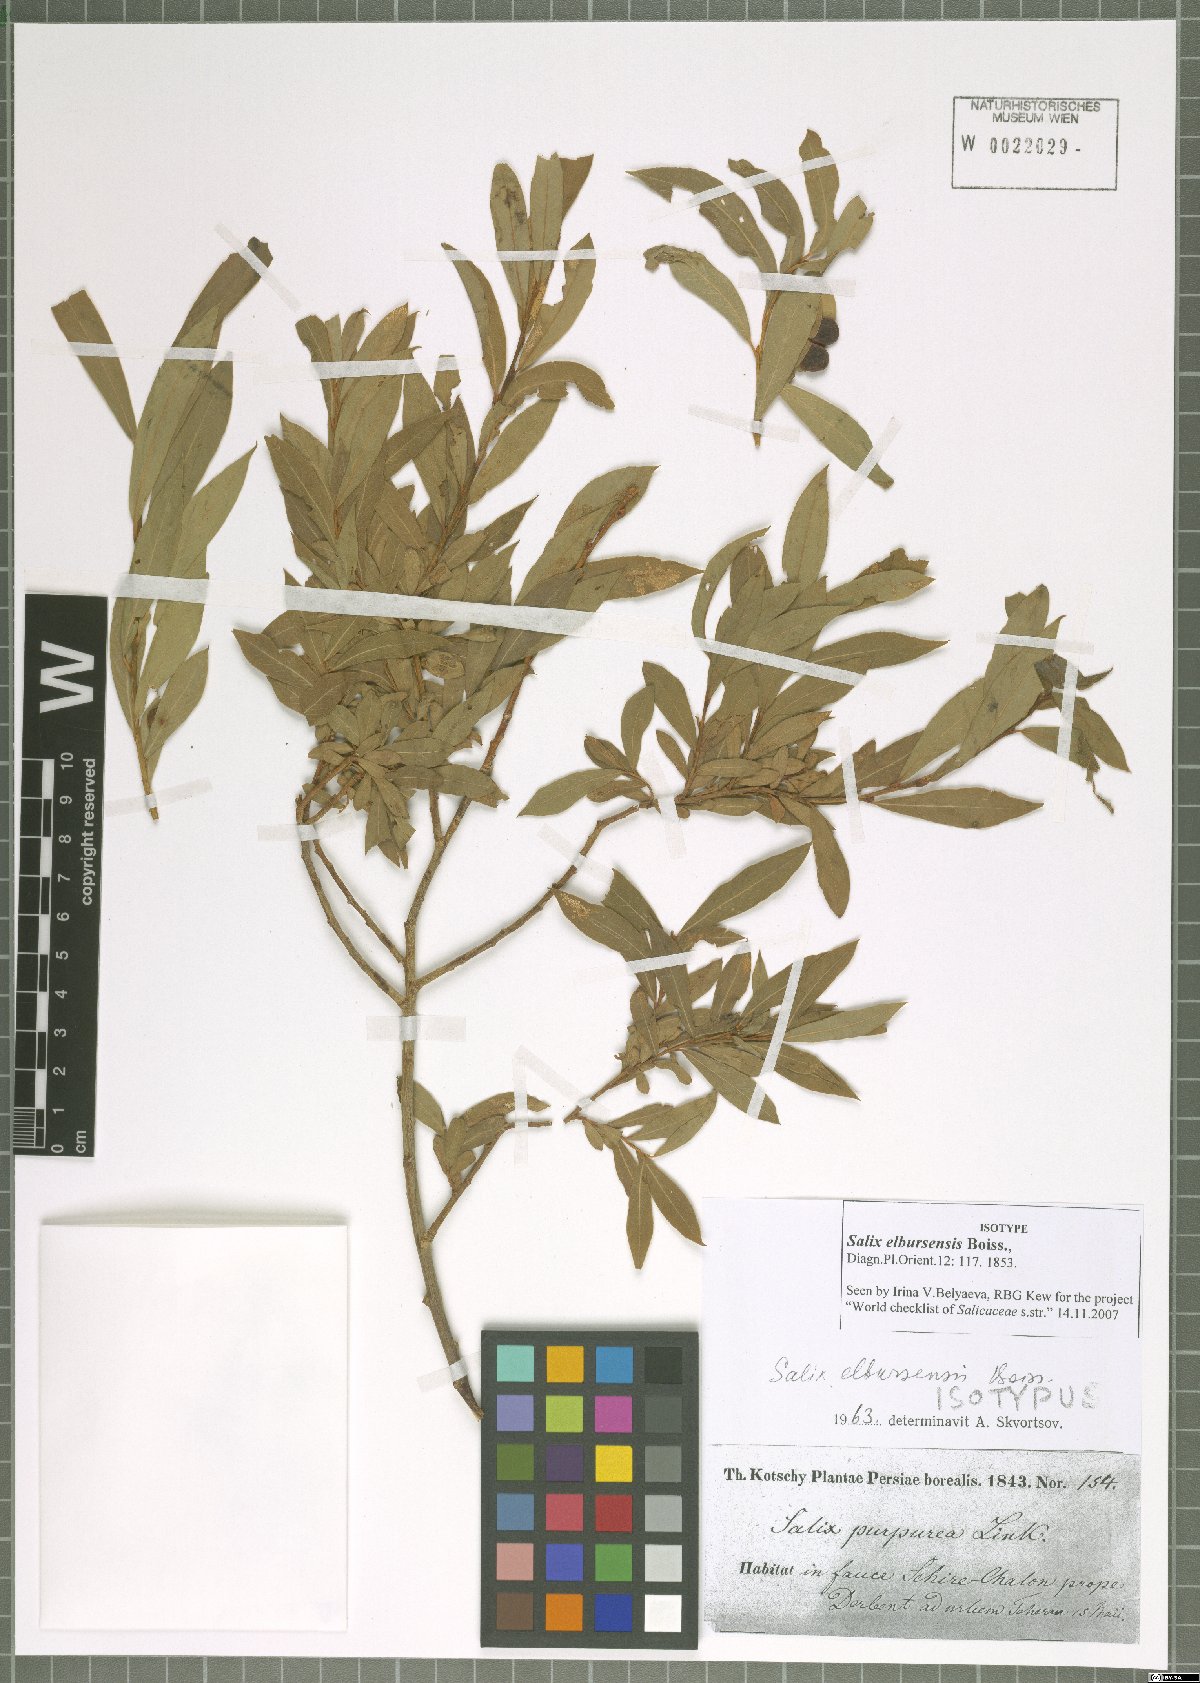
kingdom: Plantae
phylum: Tracheophyta
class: Magnoliopsida
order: Malpighiales
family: Salicaceae
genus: Salix
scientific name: Salix elbursensis
